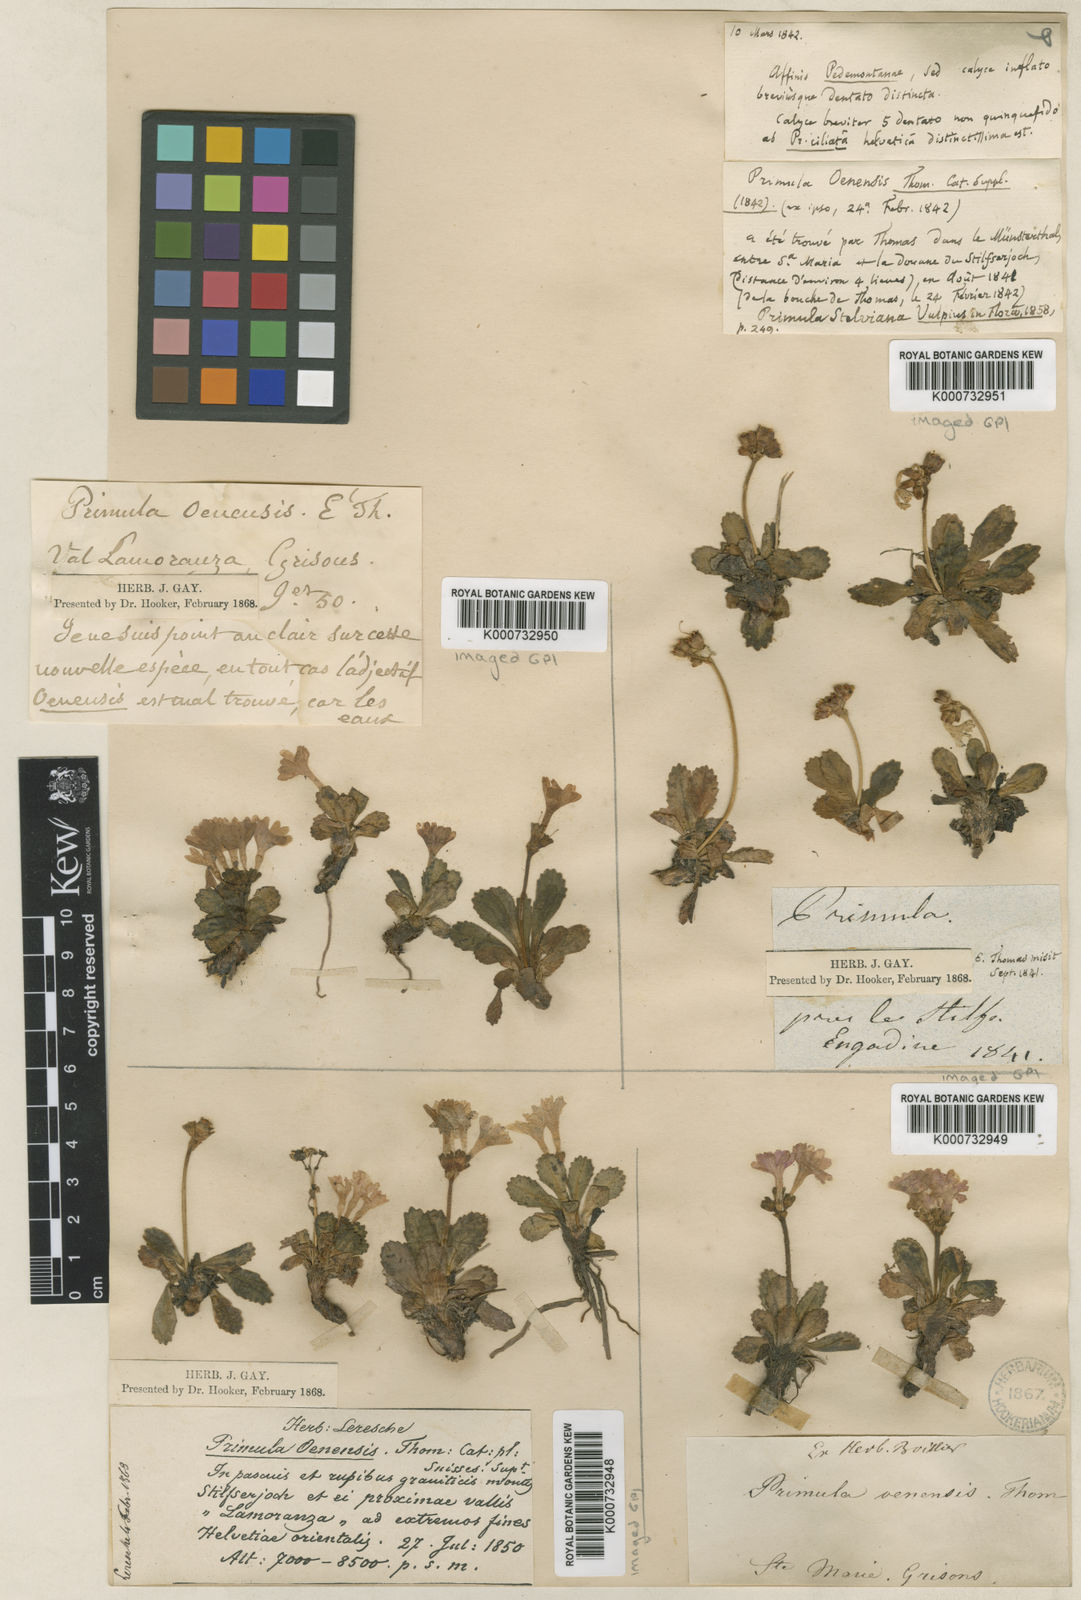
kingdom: Plantae
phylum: Tracheophyta
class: Magnoliopsida
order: Ericales
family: Primulaceae
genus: Primula
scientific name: Primula
